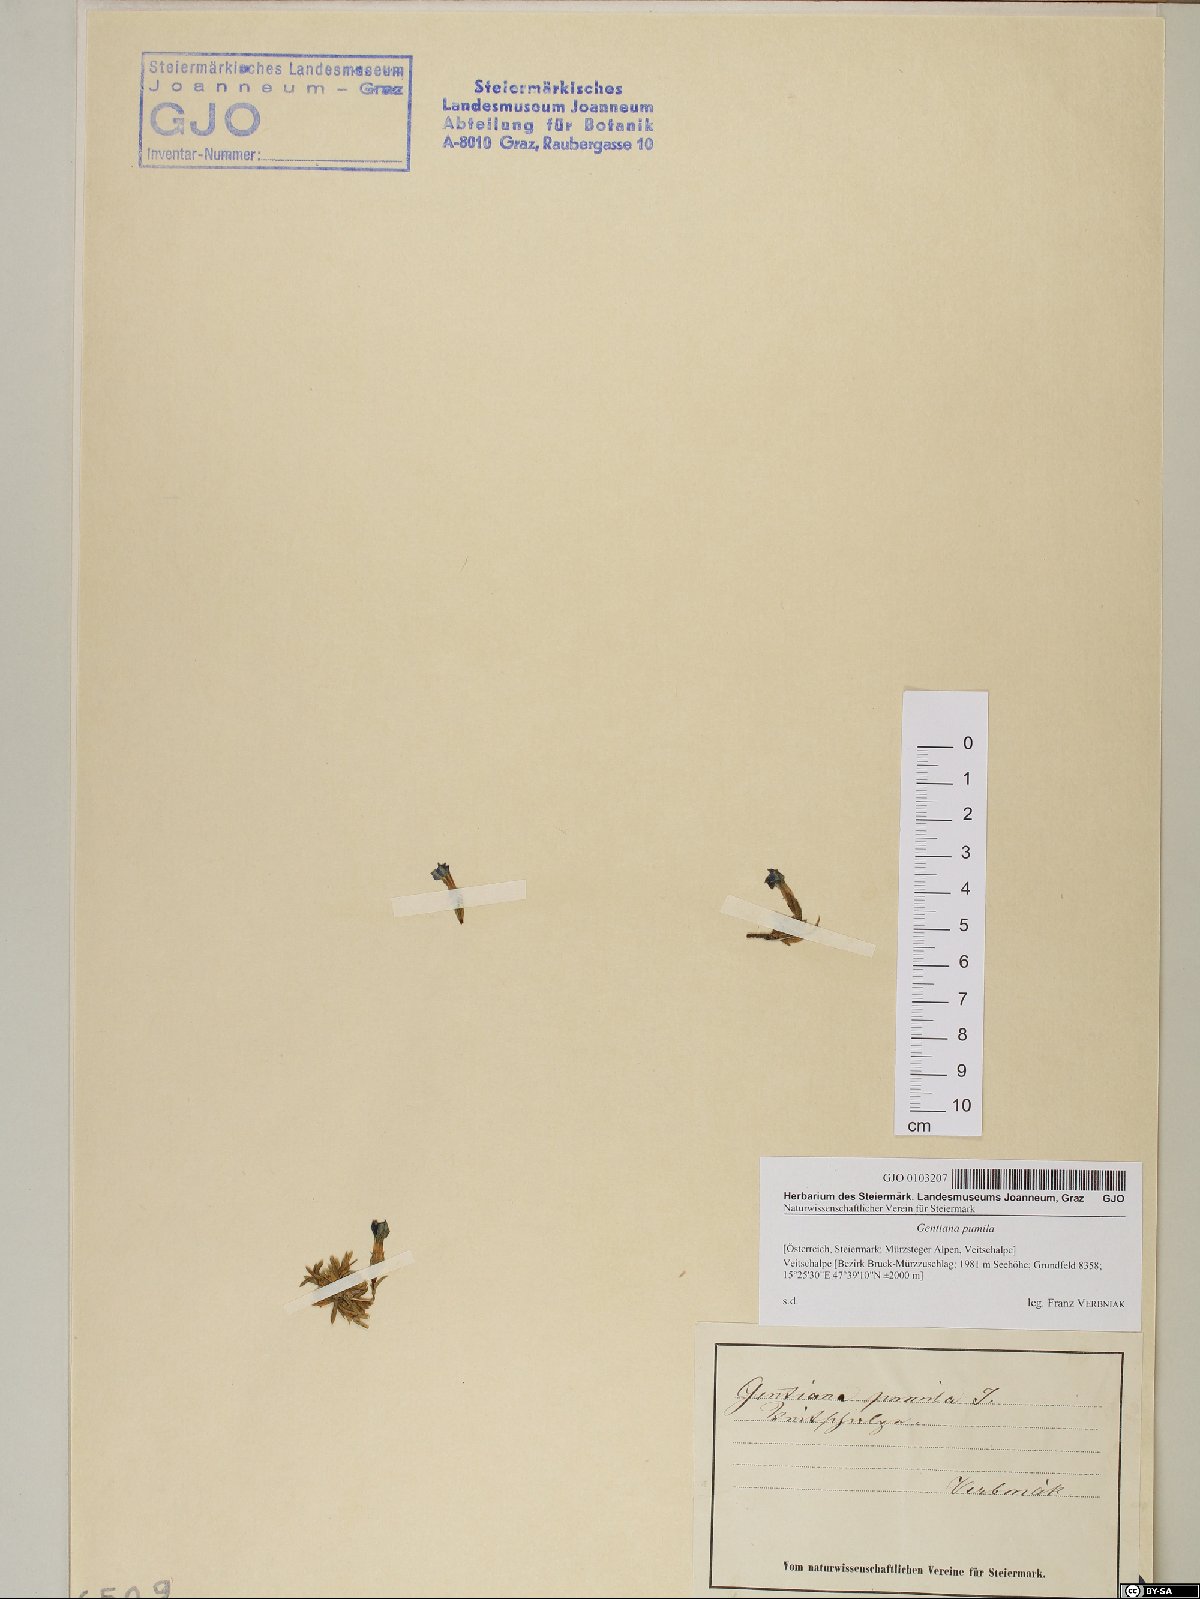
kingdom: Plantae
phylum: Tracheophyta
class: Magnoliopsida
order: Gentianales
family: Gentianaceae
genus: Gentiana
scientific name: Gentiana pumila
